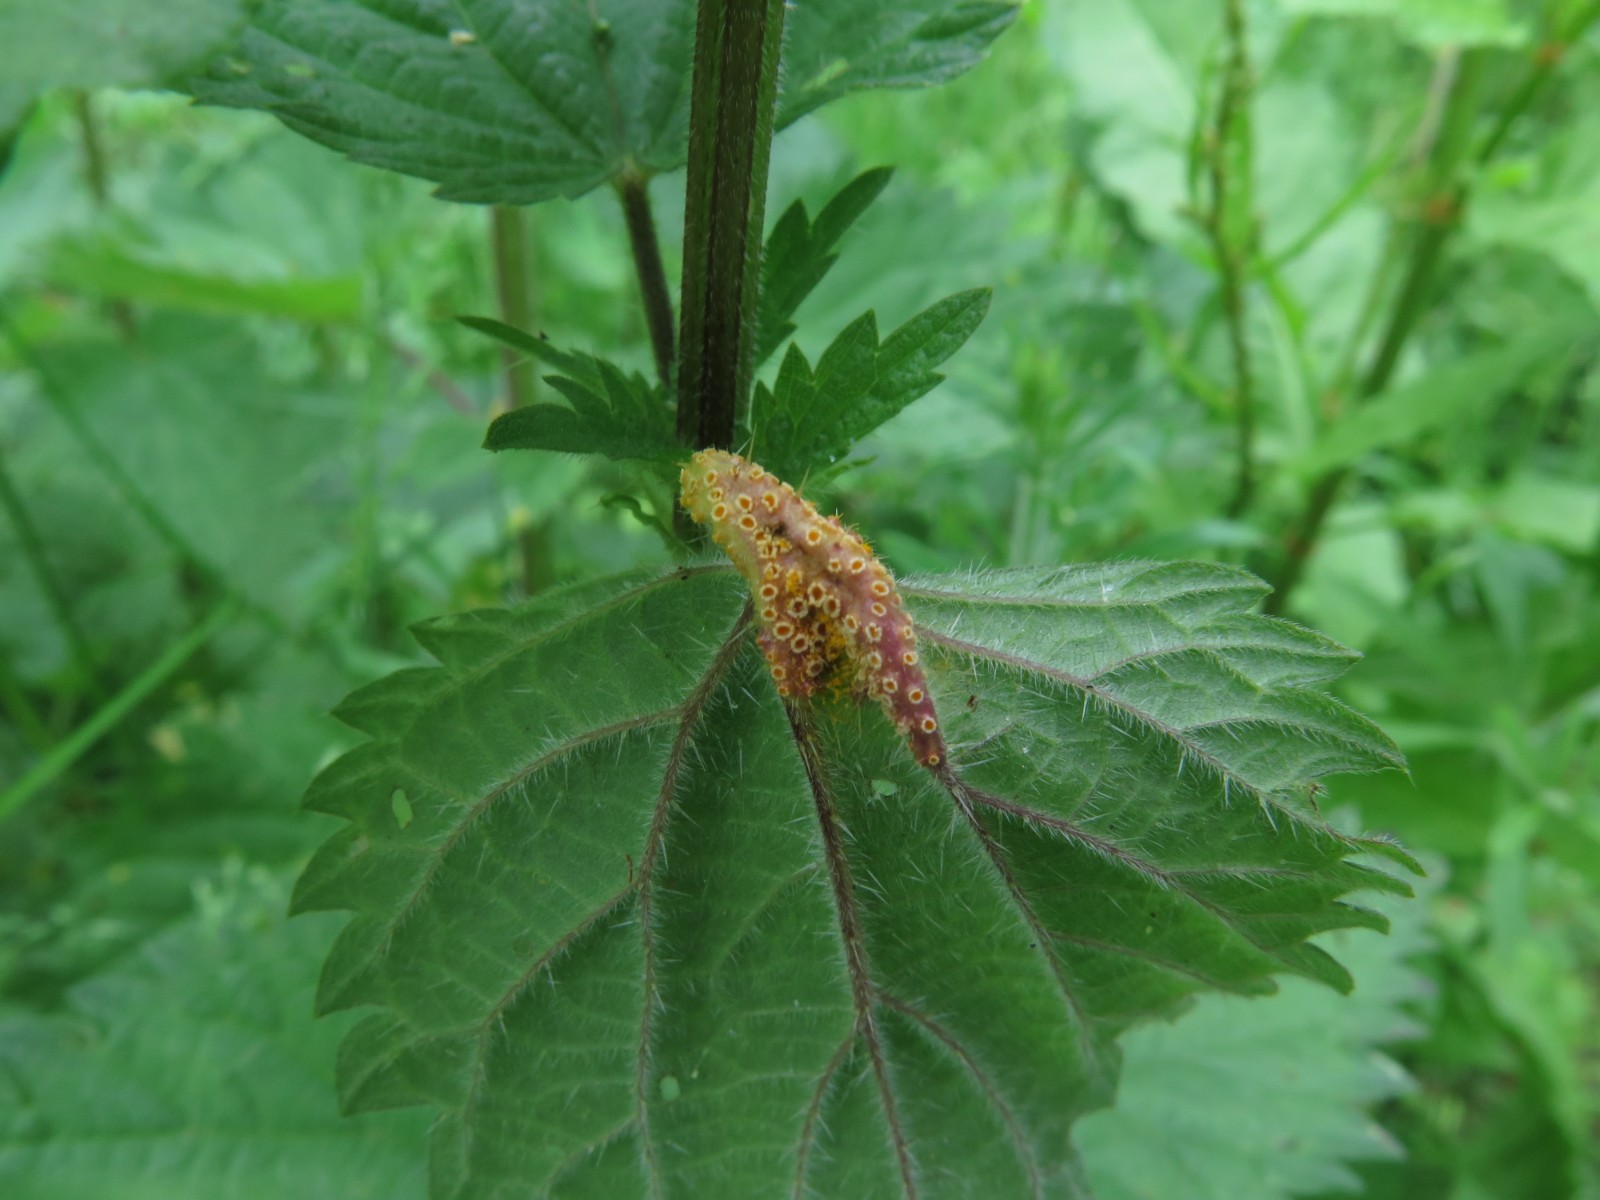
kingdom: Fungi
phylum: Basidiomycota
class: Pucciniomycetes
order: Pucciniales
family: Pucciniaceae
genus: Puccinia
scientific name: Puccinia urticata
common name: nældegalle-tvecellerust
